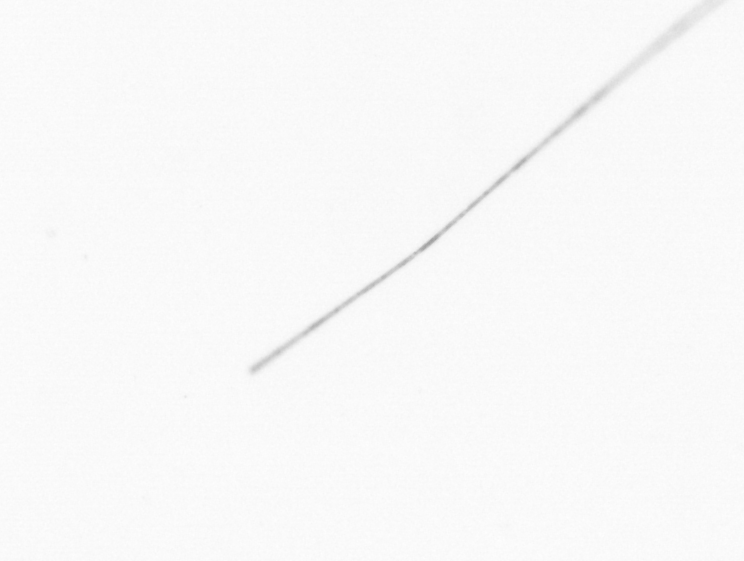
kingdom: Chromista
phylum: Ochrophyta
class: Bacillariophyceae
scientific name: Bacillariophyceae
